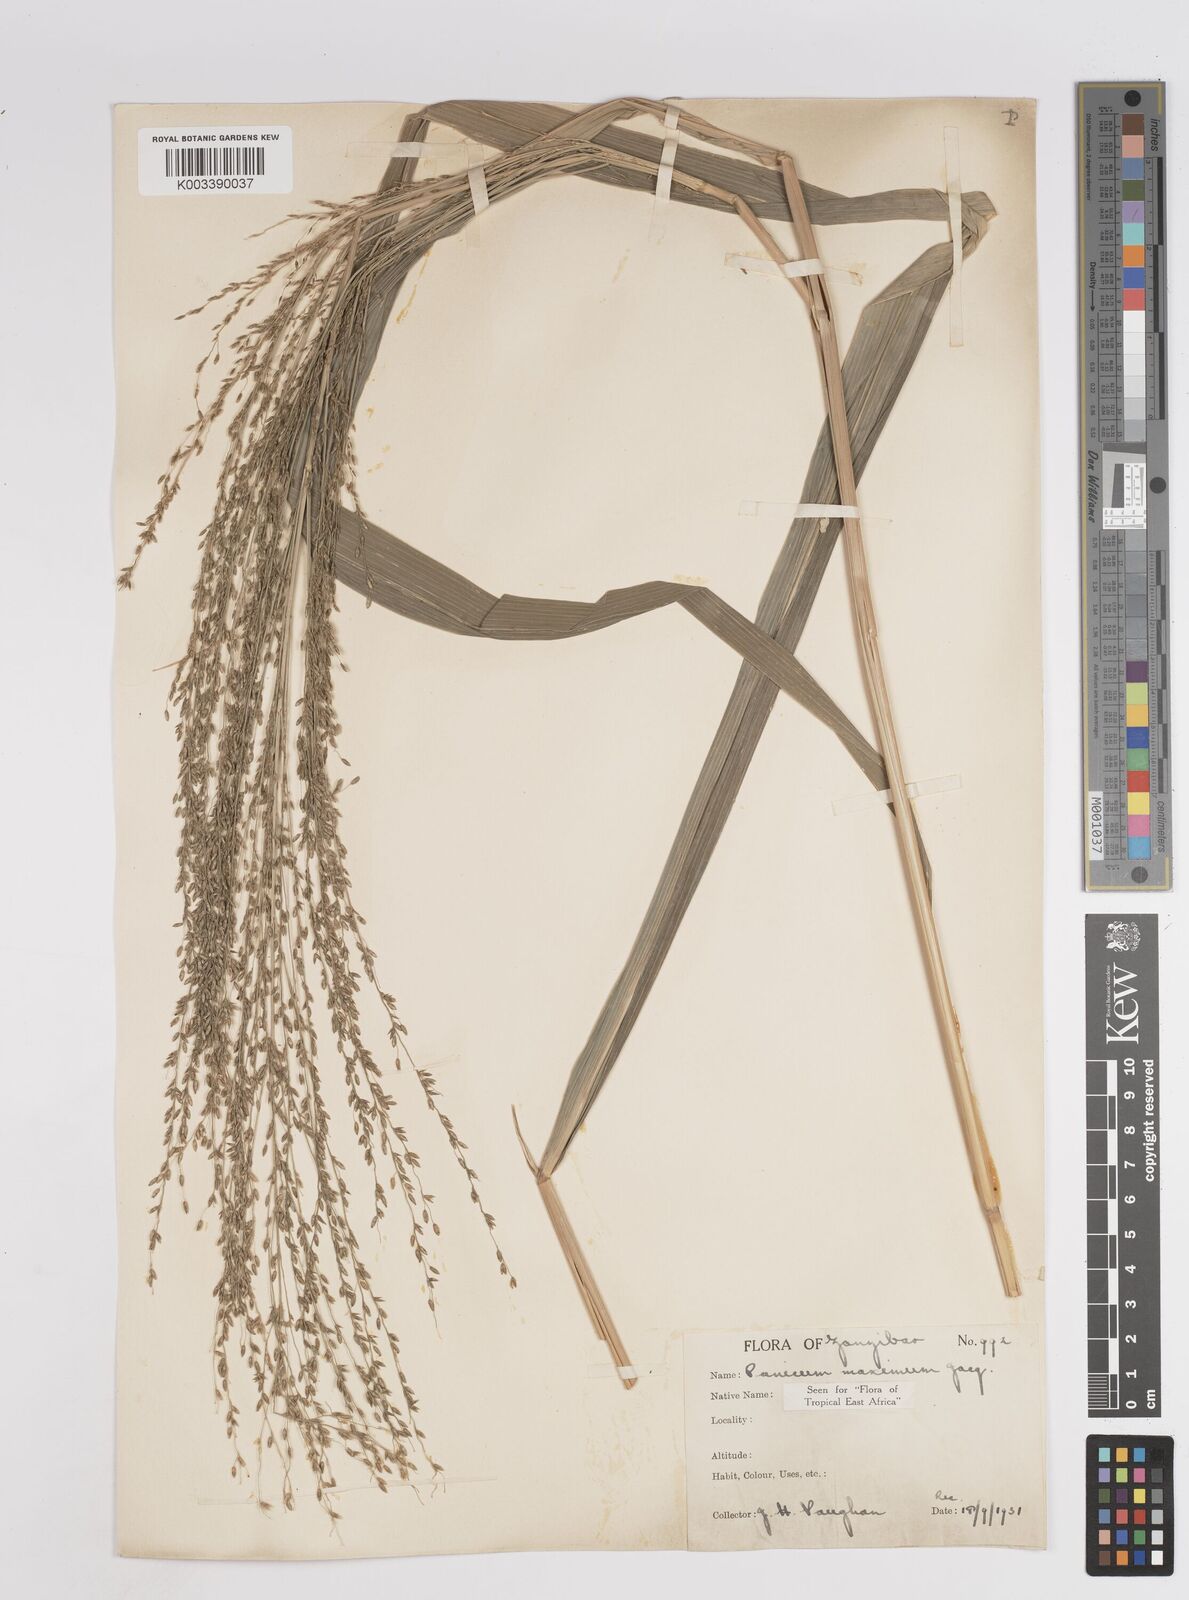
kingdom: Plantae
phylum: Tracheophyta
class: Liliopsida
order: Poales
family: Poaceae
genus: Megathyrsus
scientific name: Megathyrsus maximus
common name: Guineagrass
